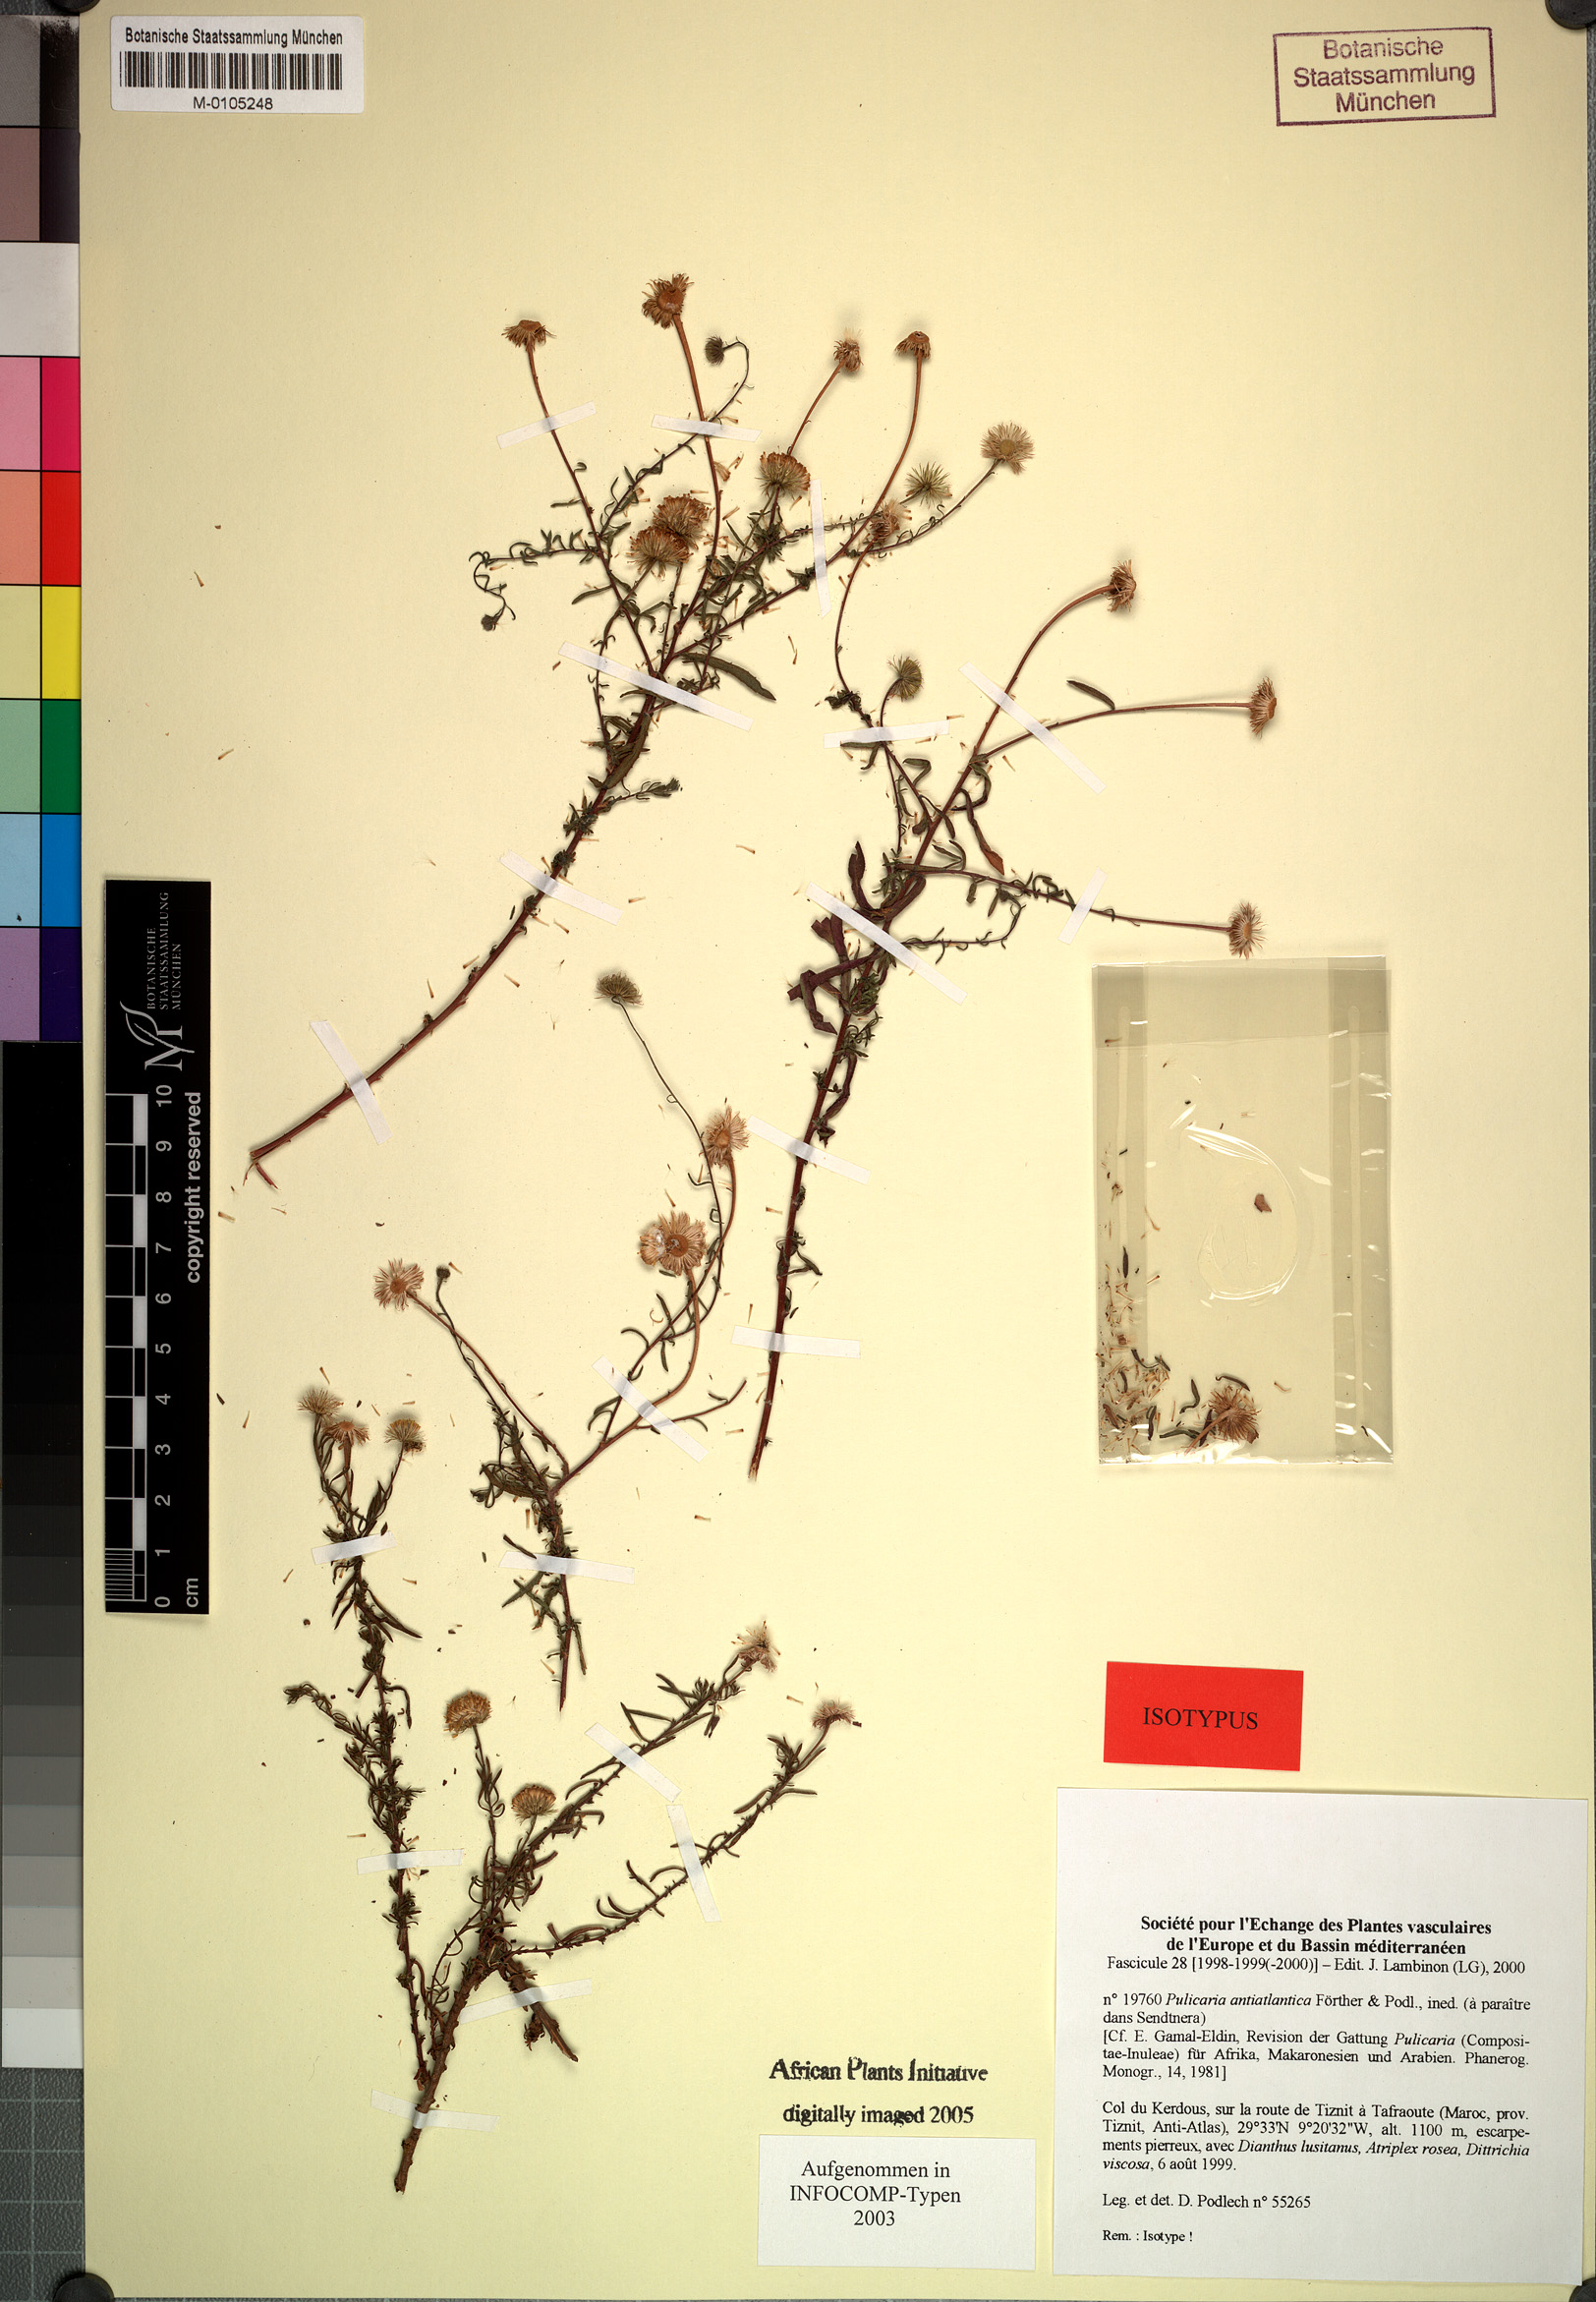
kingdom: Plantae
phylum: Tracheophyta
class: Magnoliopsida
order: Asterales
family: Asteraceae
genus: Pulicaria
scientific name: Pulicaria glandulosa
